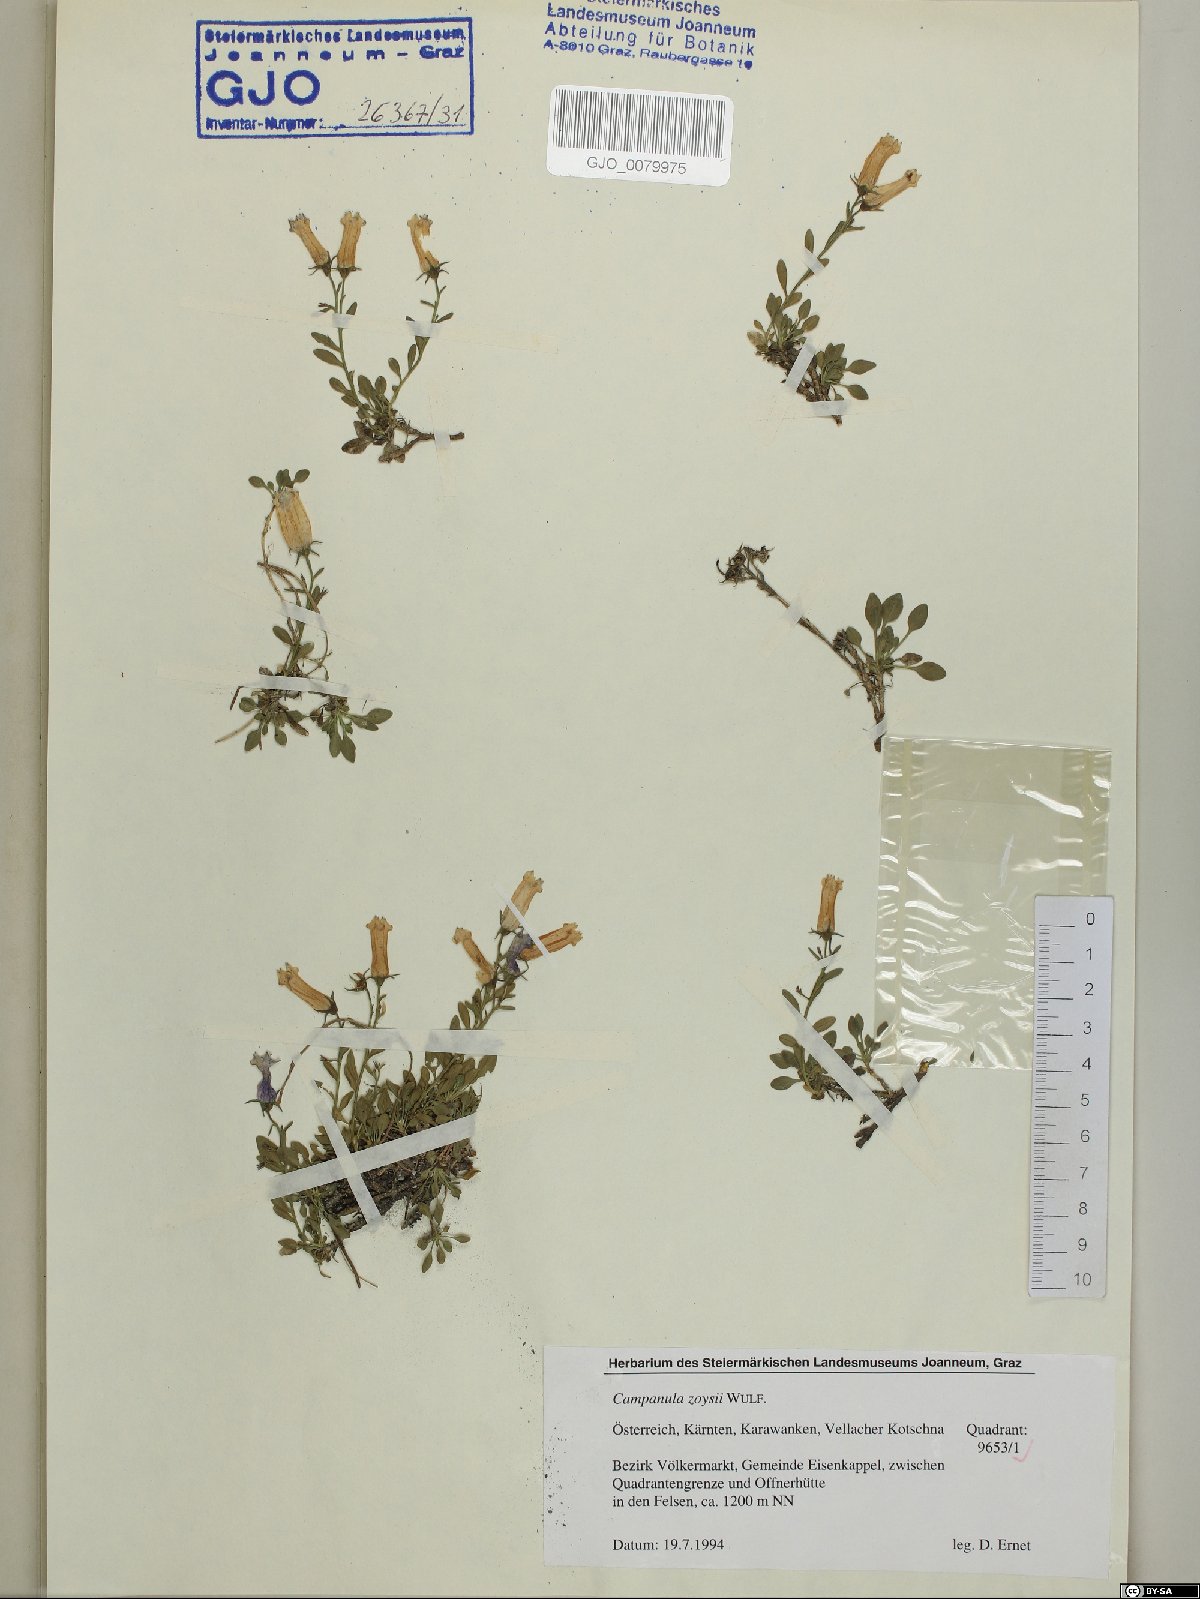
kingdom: Plantae
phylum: Tracheophyta
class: Magnoliopsida
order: Asterales
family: Campanulaceae
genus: Favratia
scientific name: Favratia zoysii
